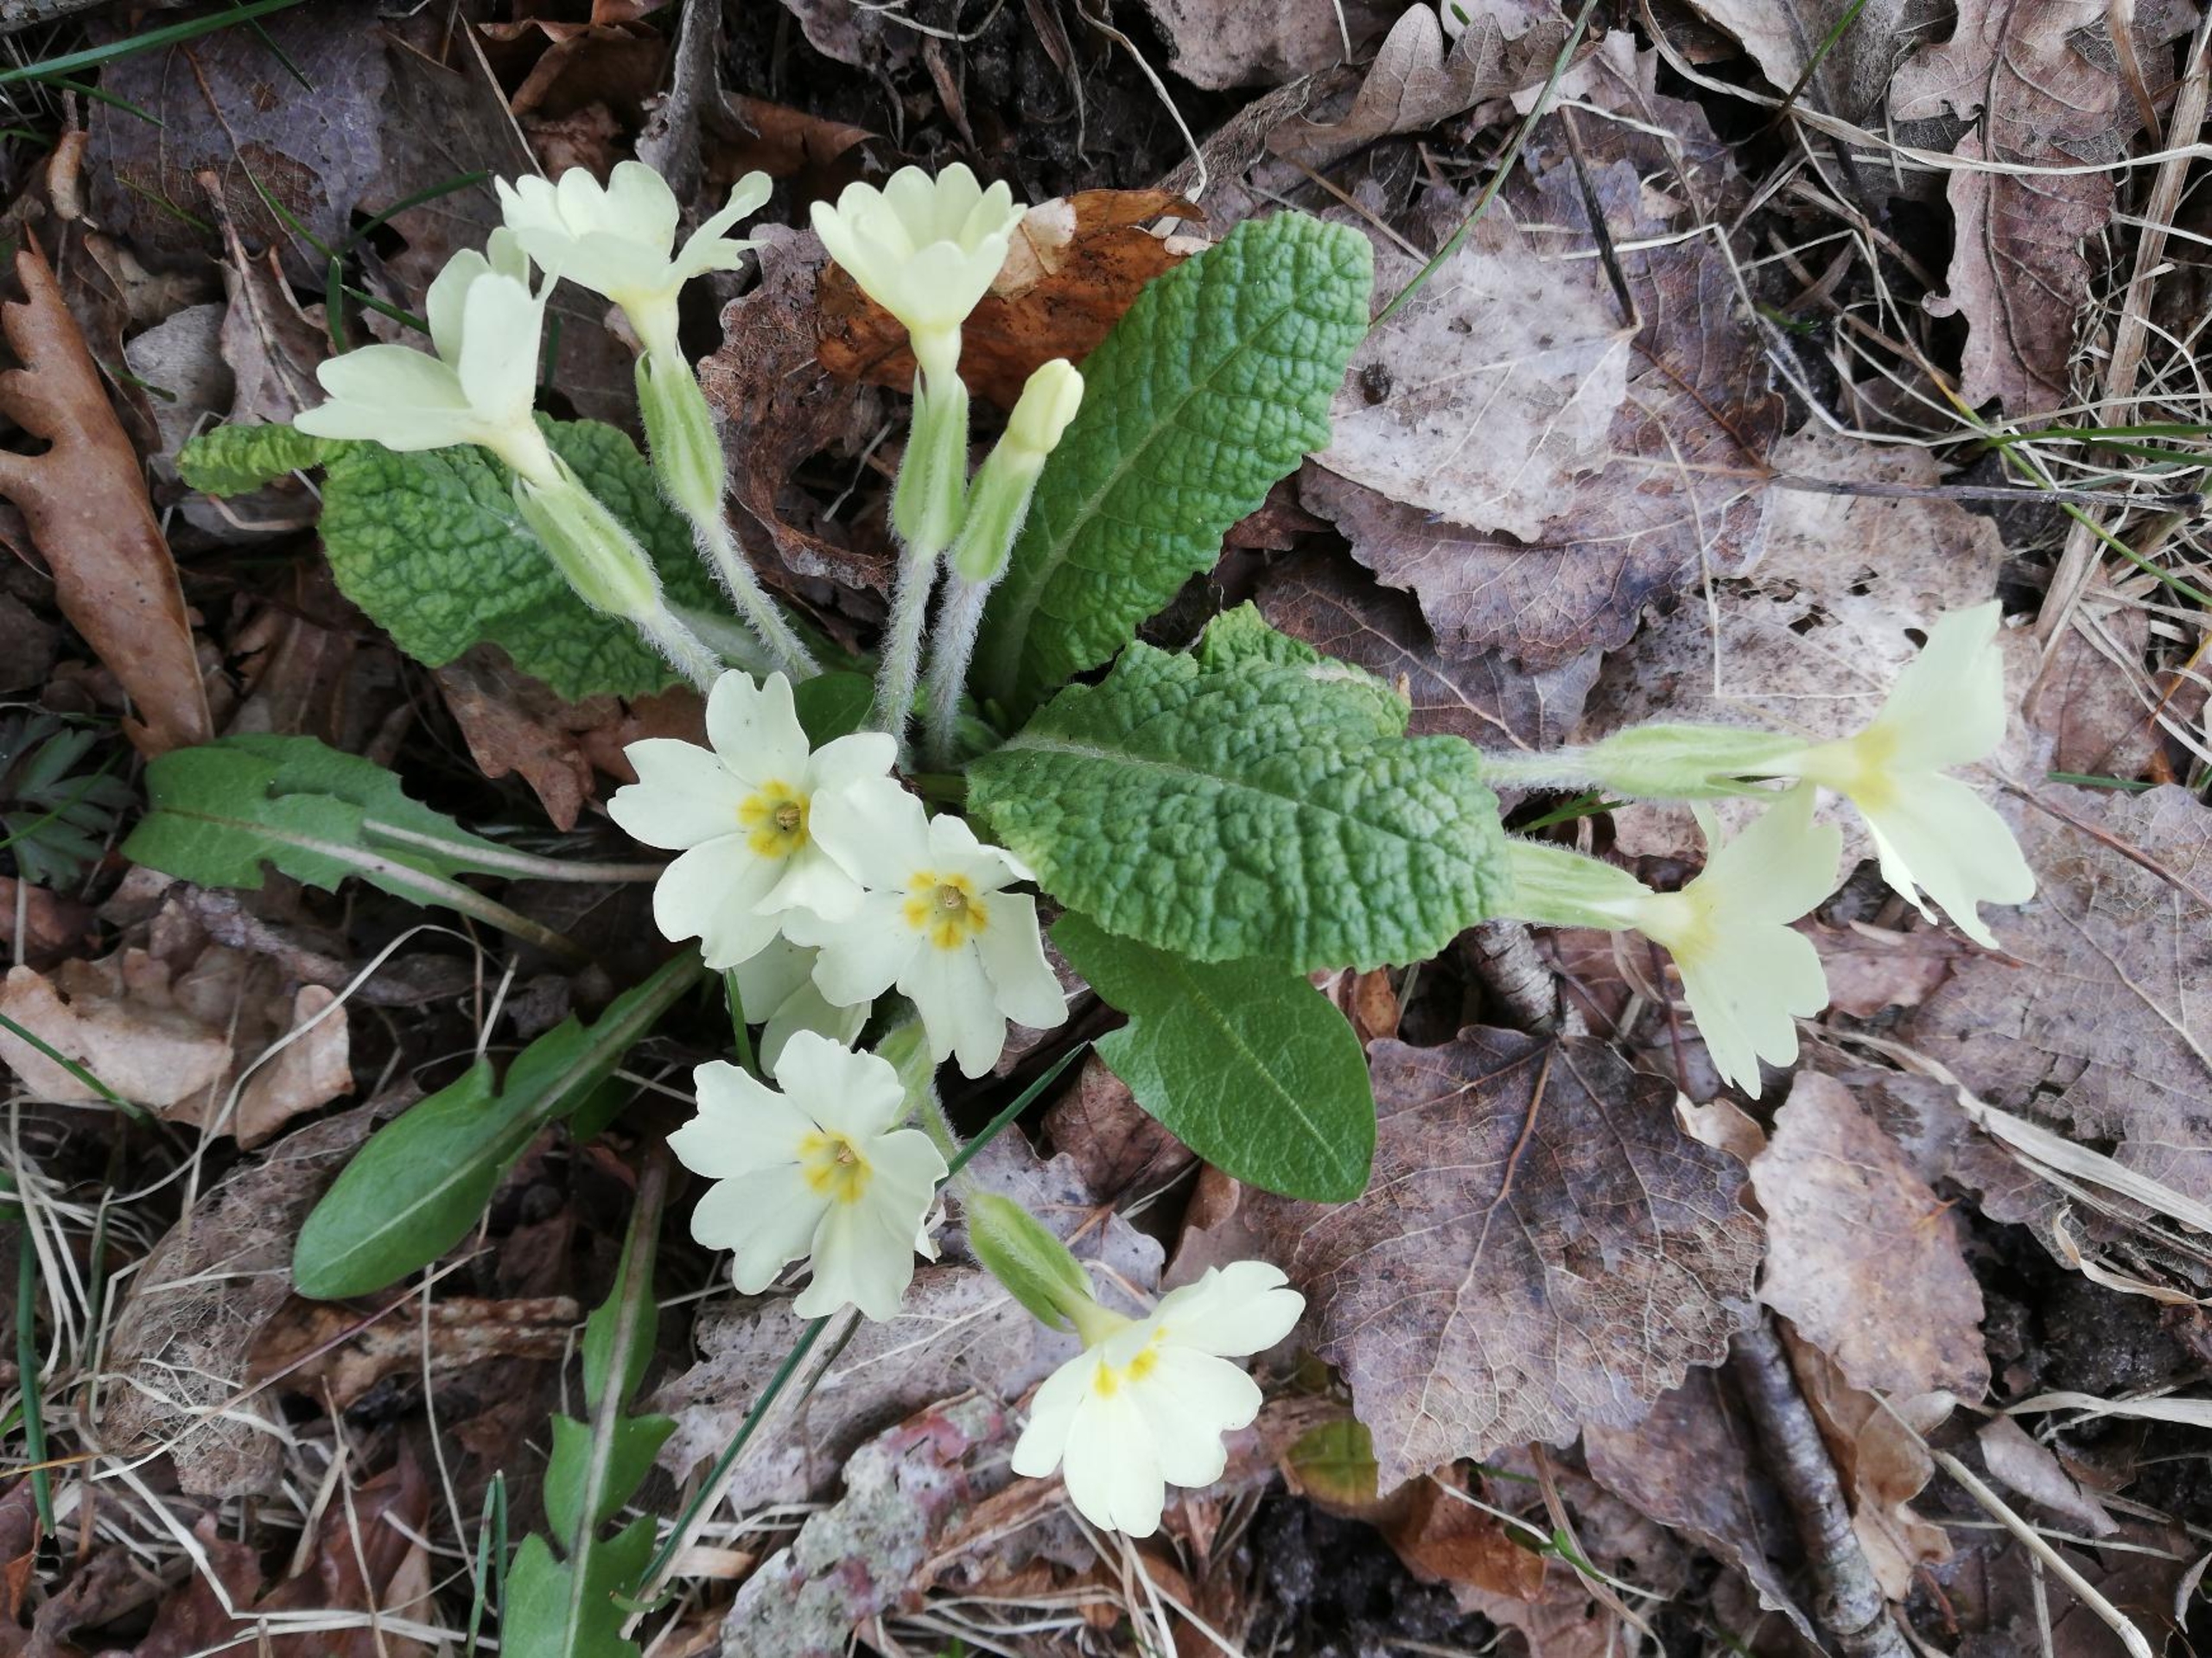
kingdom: Plantae
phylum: Tracheophyta
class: Magnoliopsida
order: Ericales
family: Primulaceae
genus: Primula
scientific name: Primula vulgaris
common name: Storblomstret kodriver
